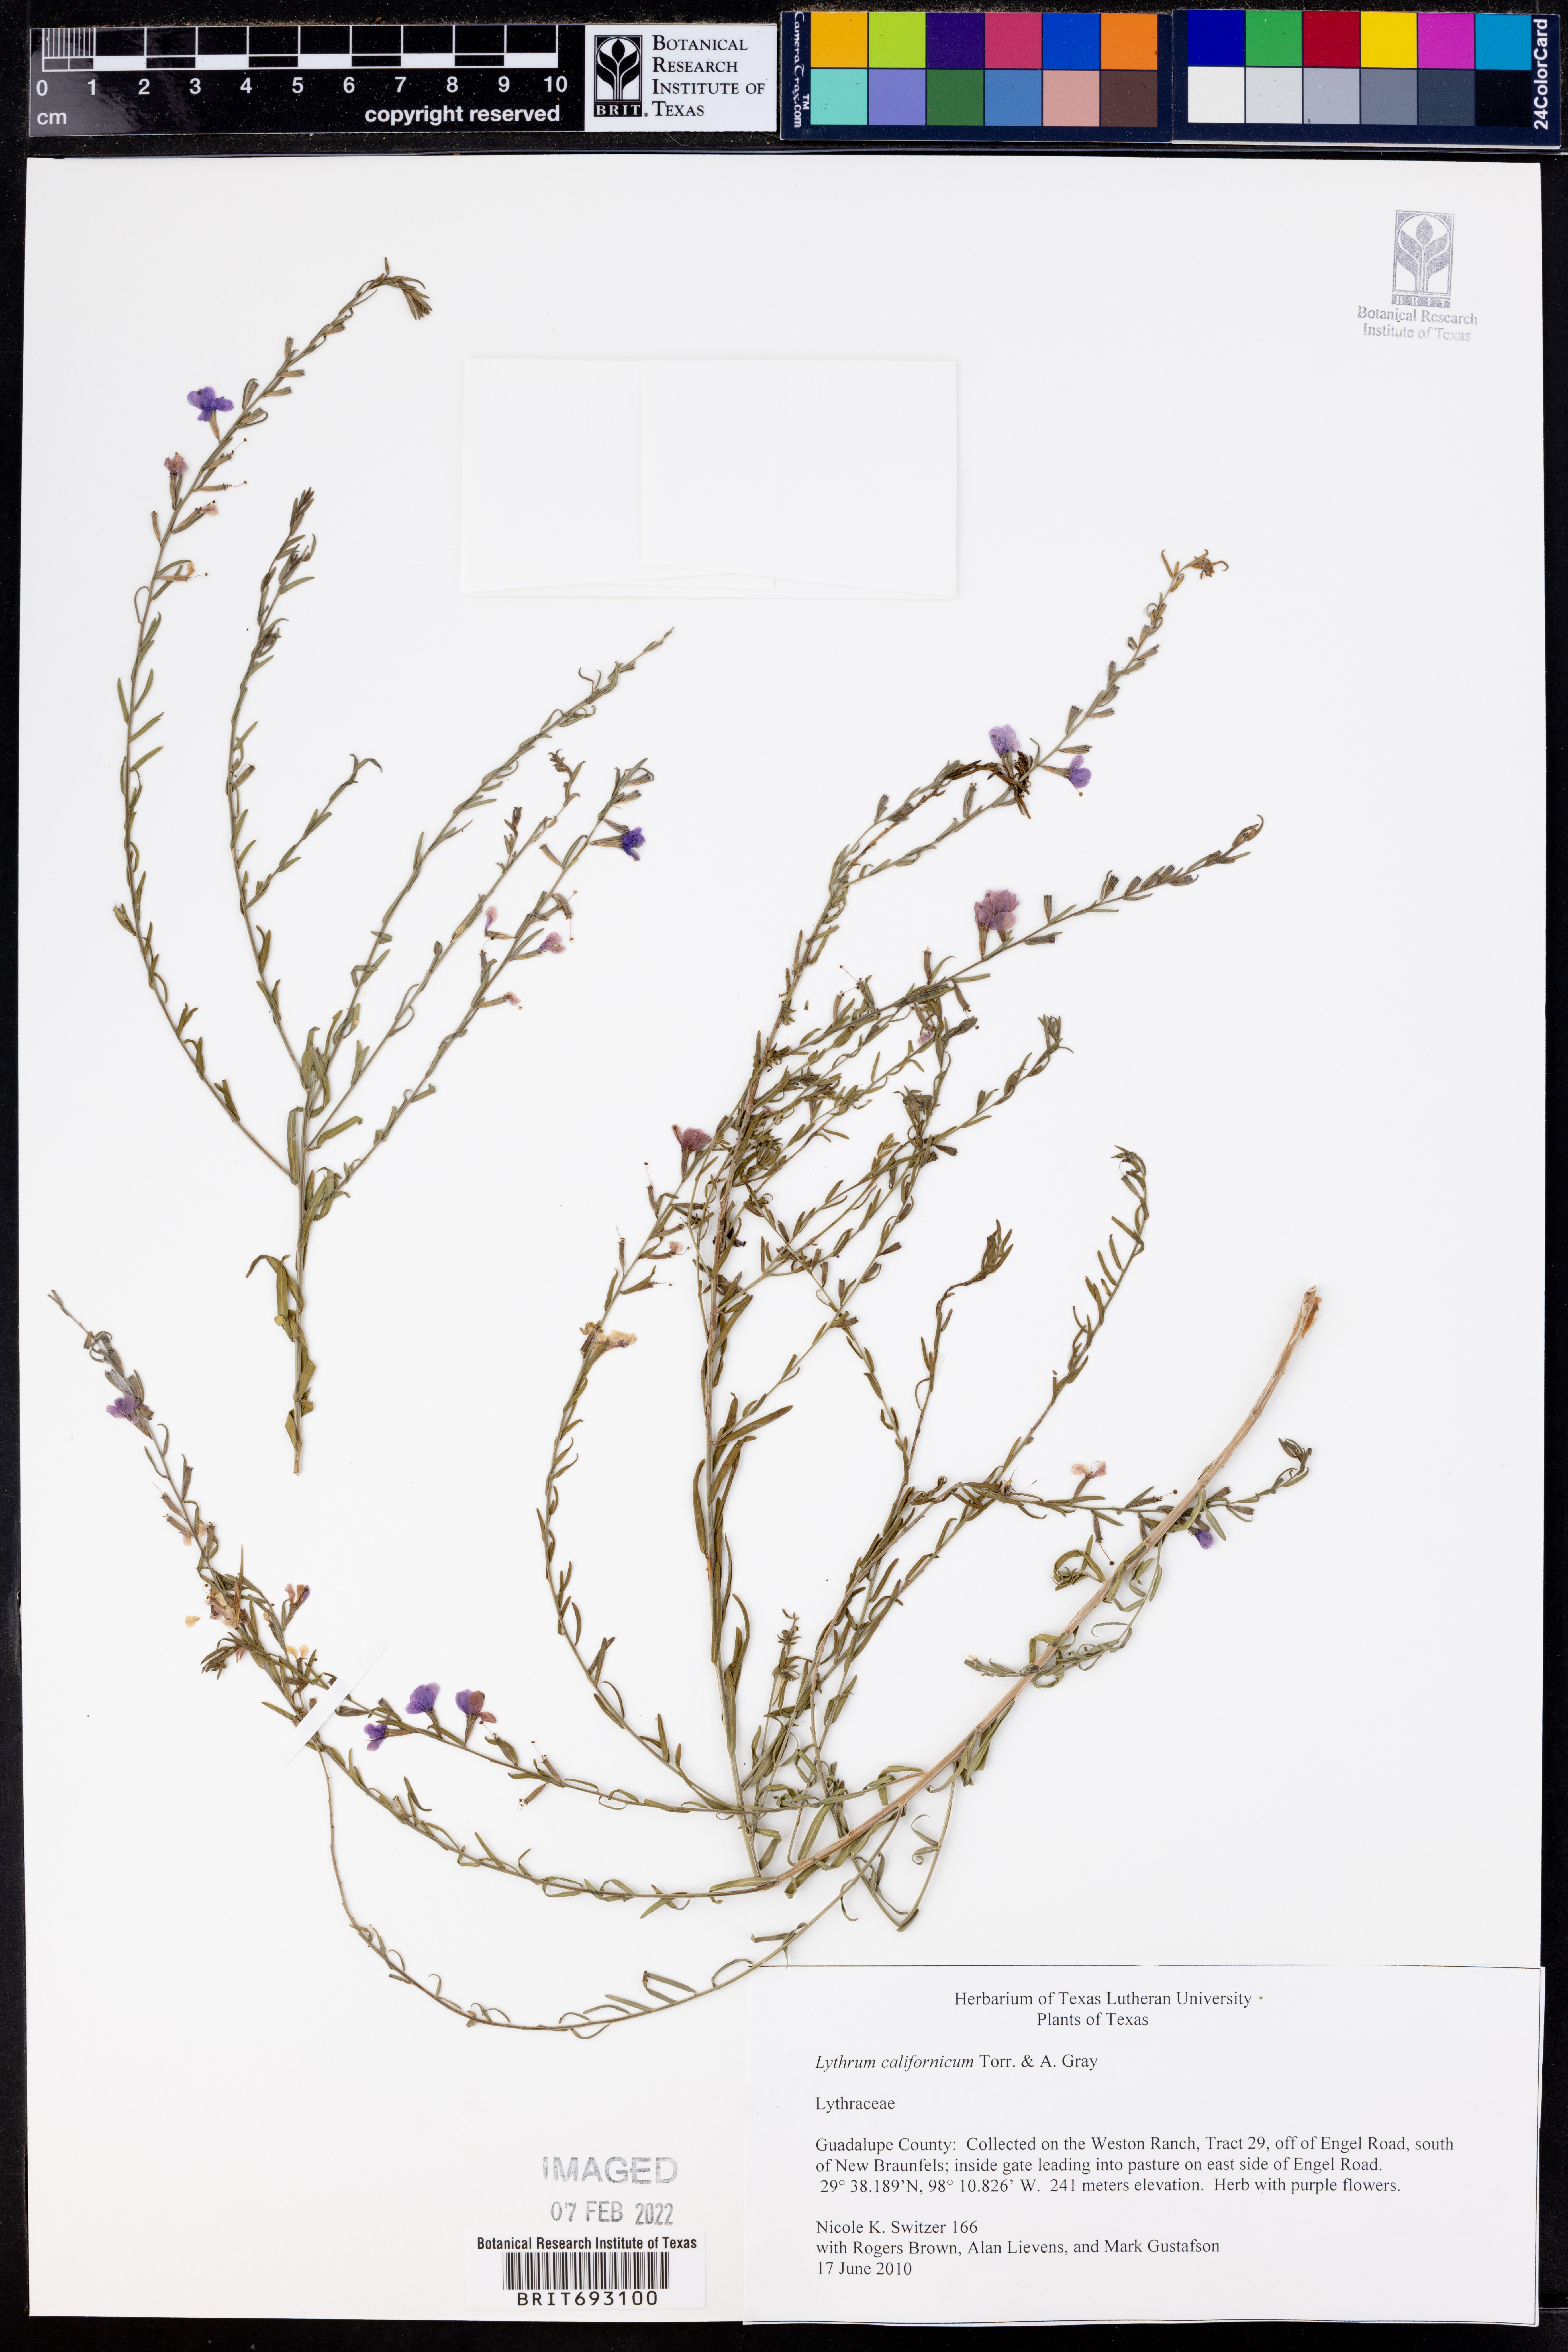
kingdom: Plantae
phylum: Tracheophyta
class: Magnoliopsida
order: Myrtales
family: Lythraceae
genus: Lythrum
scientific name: Lythrum californicum
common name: California loosestrife
